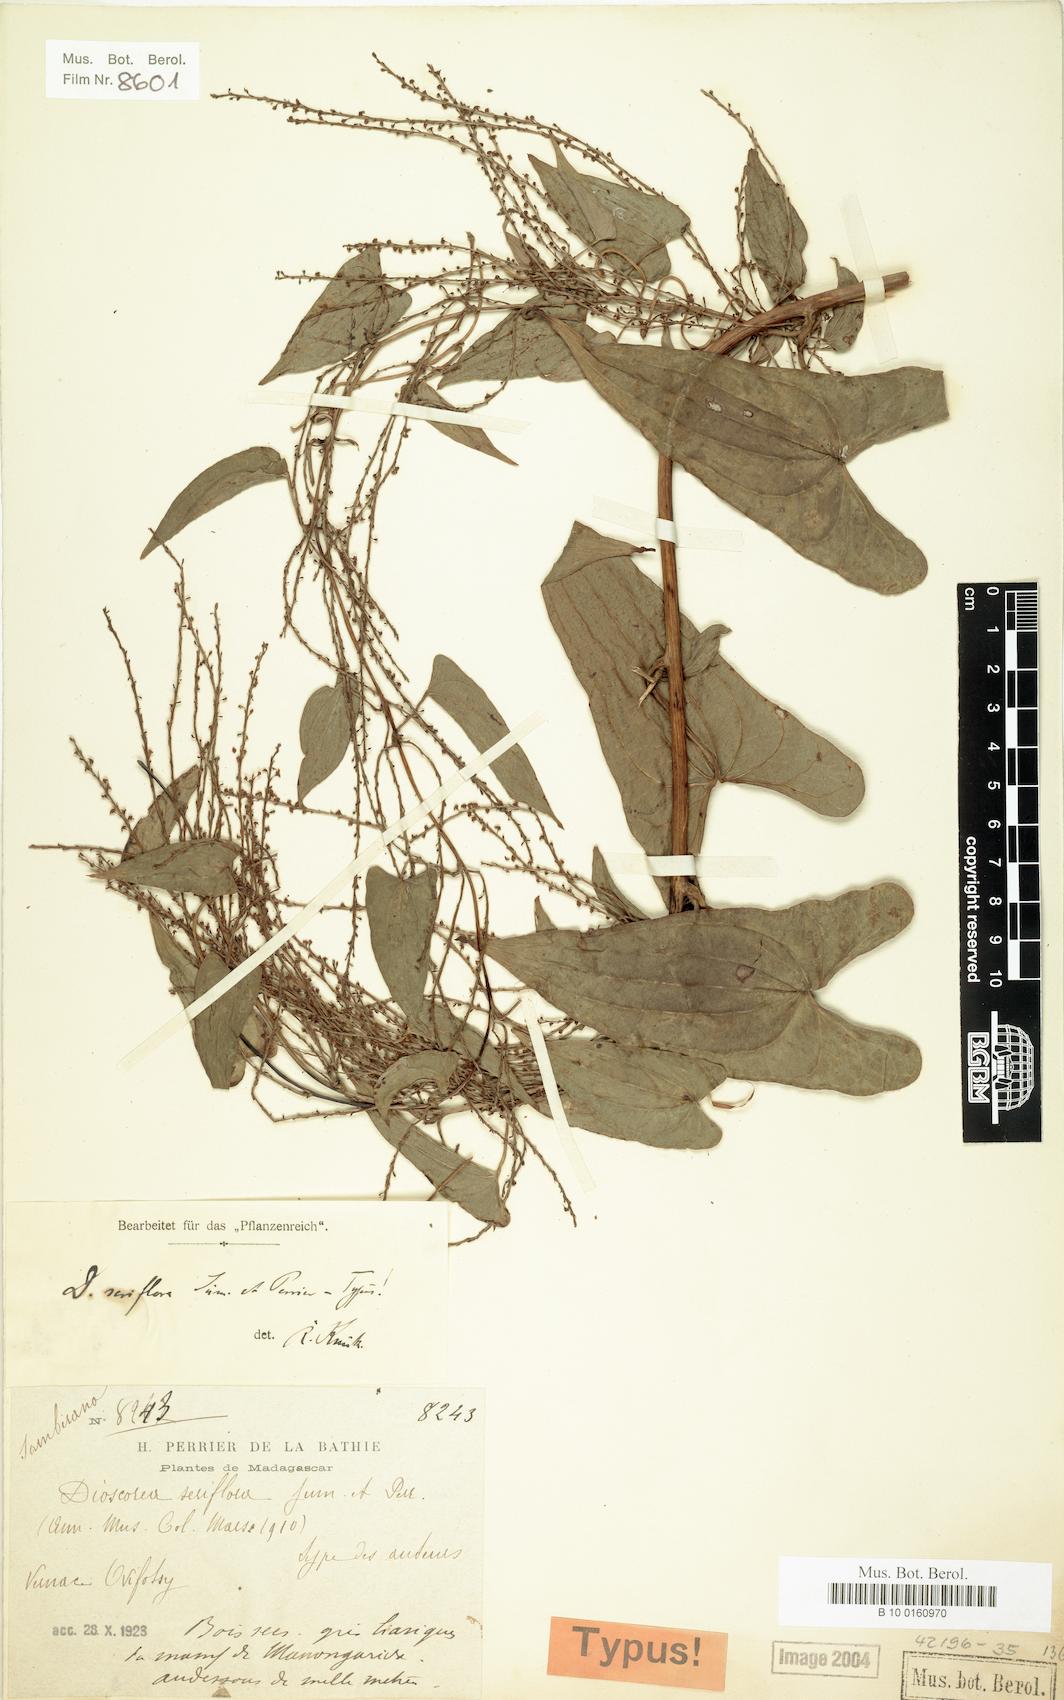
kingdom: Plantae
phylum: Tracheophyta
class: Liliopsida
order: Dioscoreales
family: Dioscoreaceae
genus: Dioscorea
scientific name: Dioscorea seriflora
